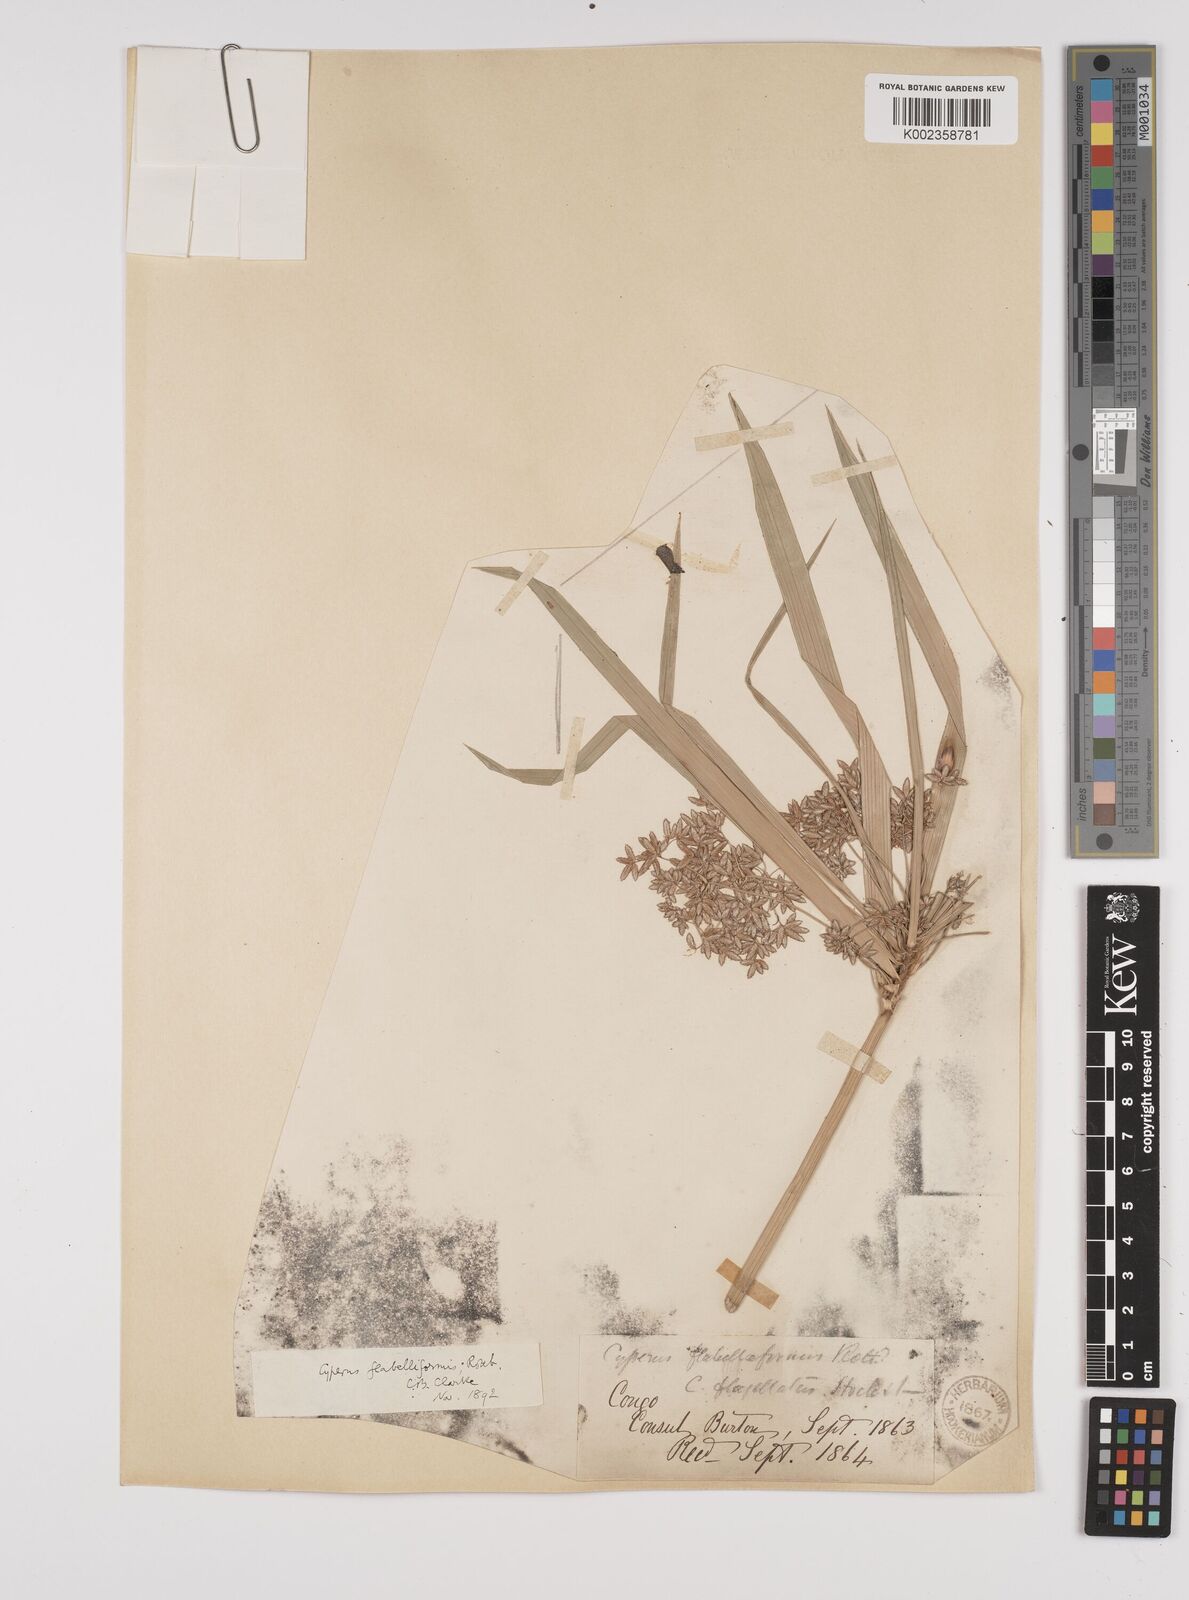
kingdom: Plantae
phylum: Tracheophyta
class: Liliopsida
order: Poales
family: Cyperaceae
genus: Cyperus
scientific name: Cyperus alternifolius
